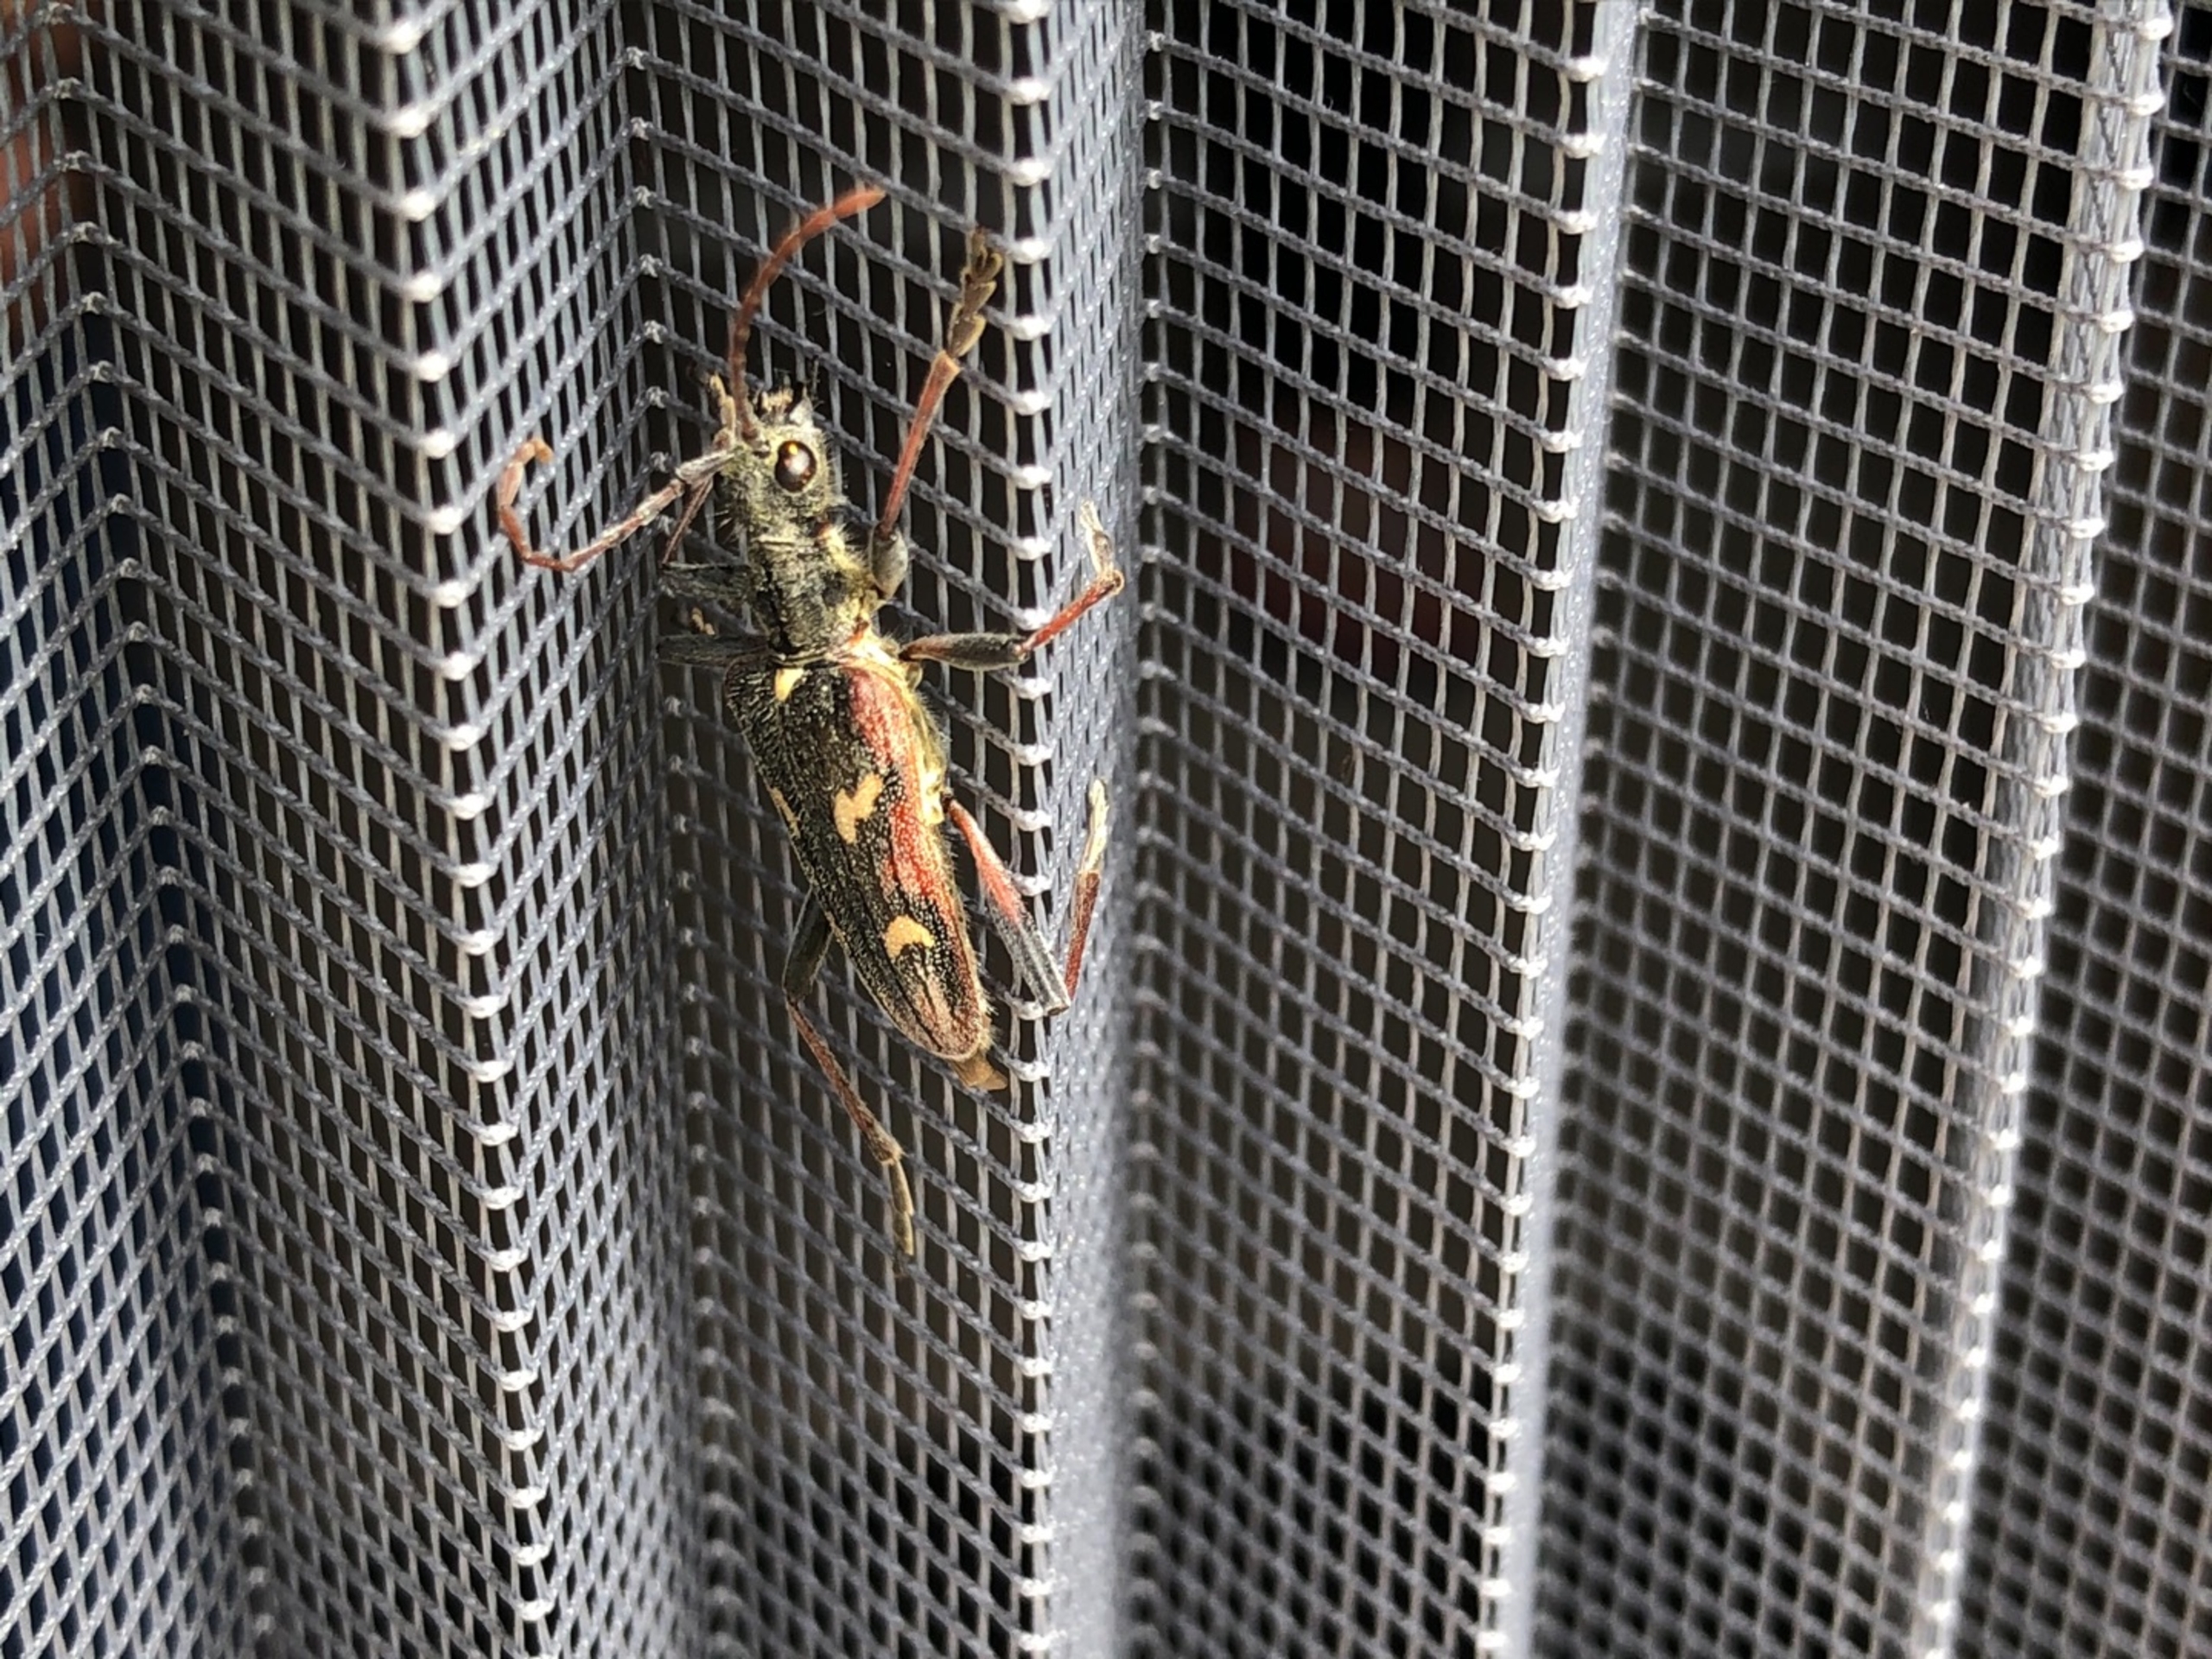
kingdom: Animalia
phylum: Arthropoda
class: Insecta
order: Coleoptera
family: Cerambycidae
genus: Rhagium
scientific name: Rhagium bifasciatum
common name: Båndet tandbuk
